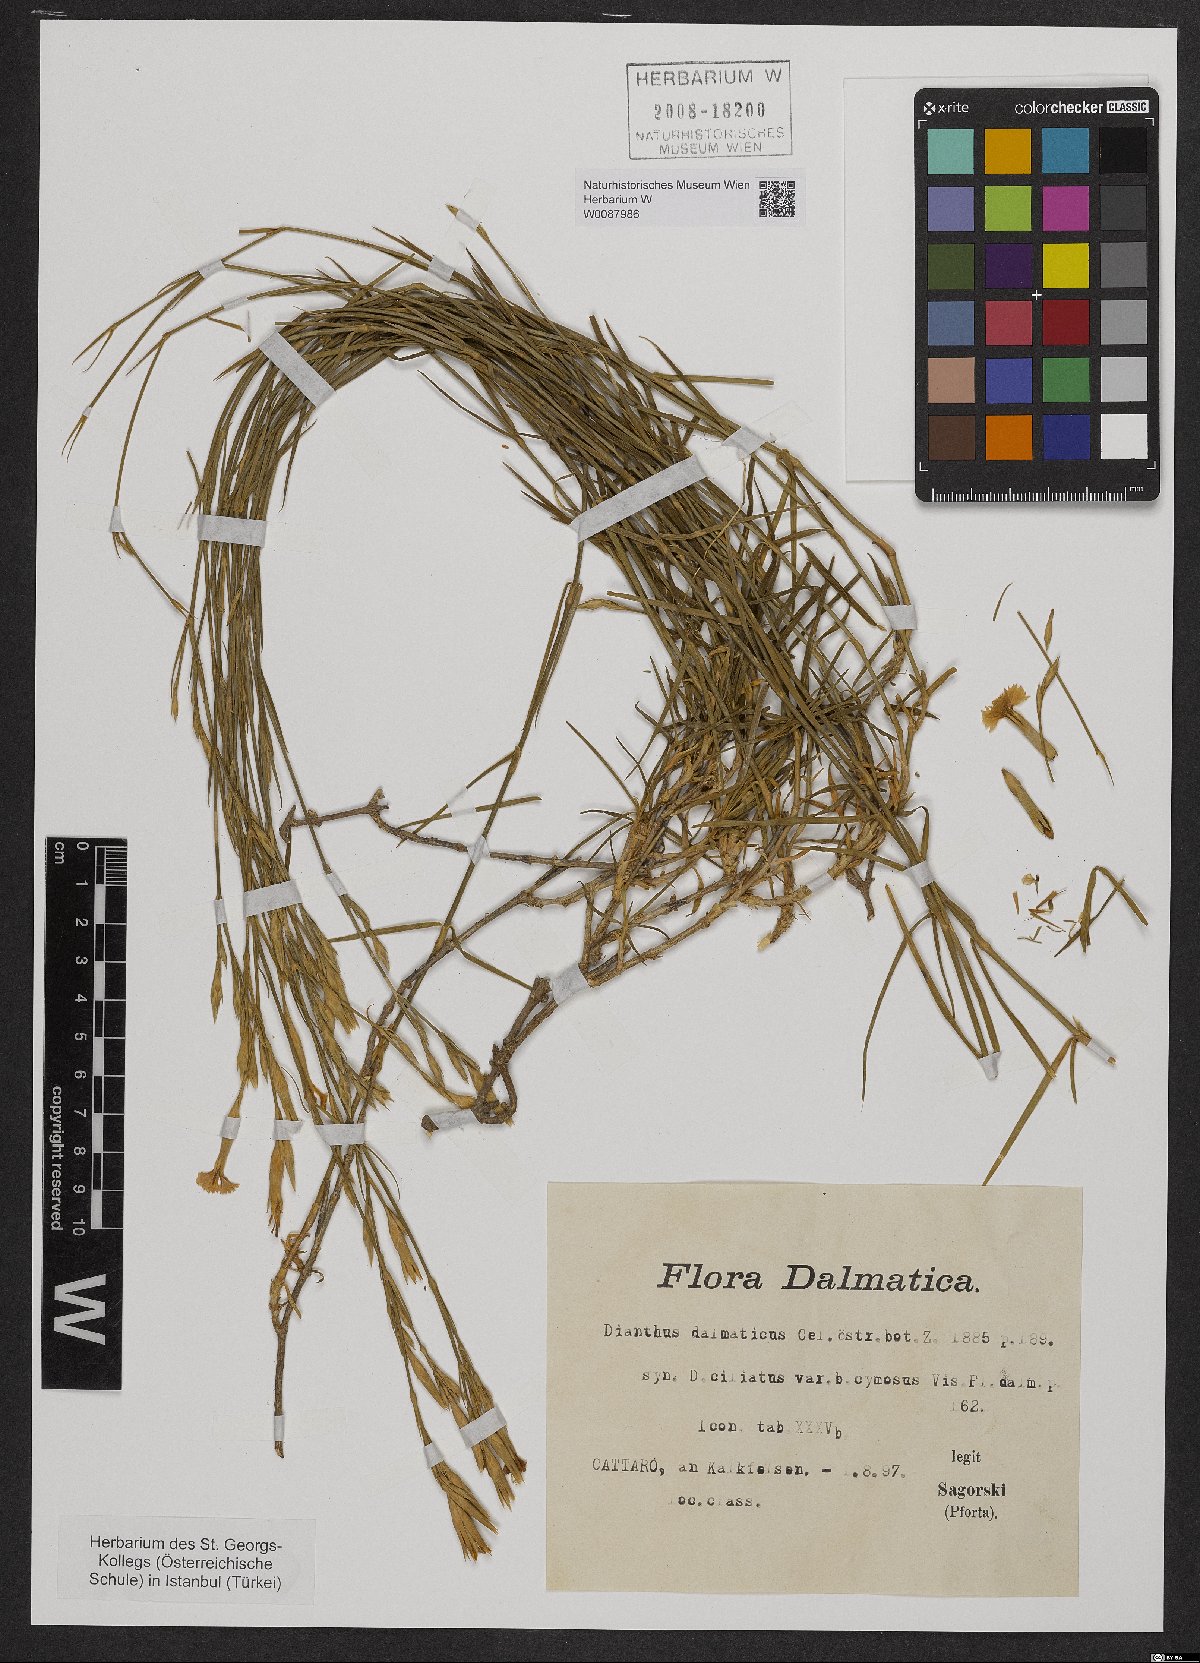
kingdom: Plantae
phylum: Tracheophyta
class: Magnoliopsida
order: Caryophyllales
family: Caryophyllaceae
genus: Dianthus
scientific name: Dianthus ciliatus
